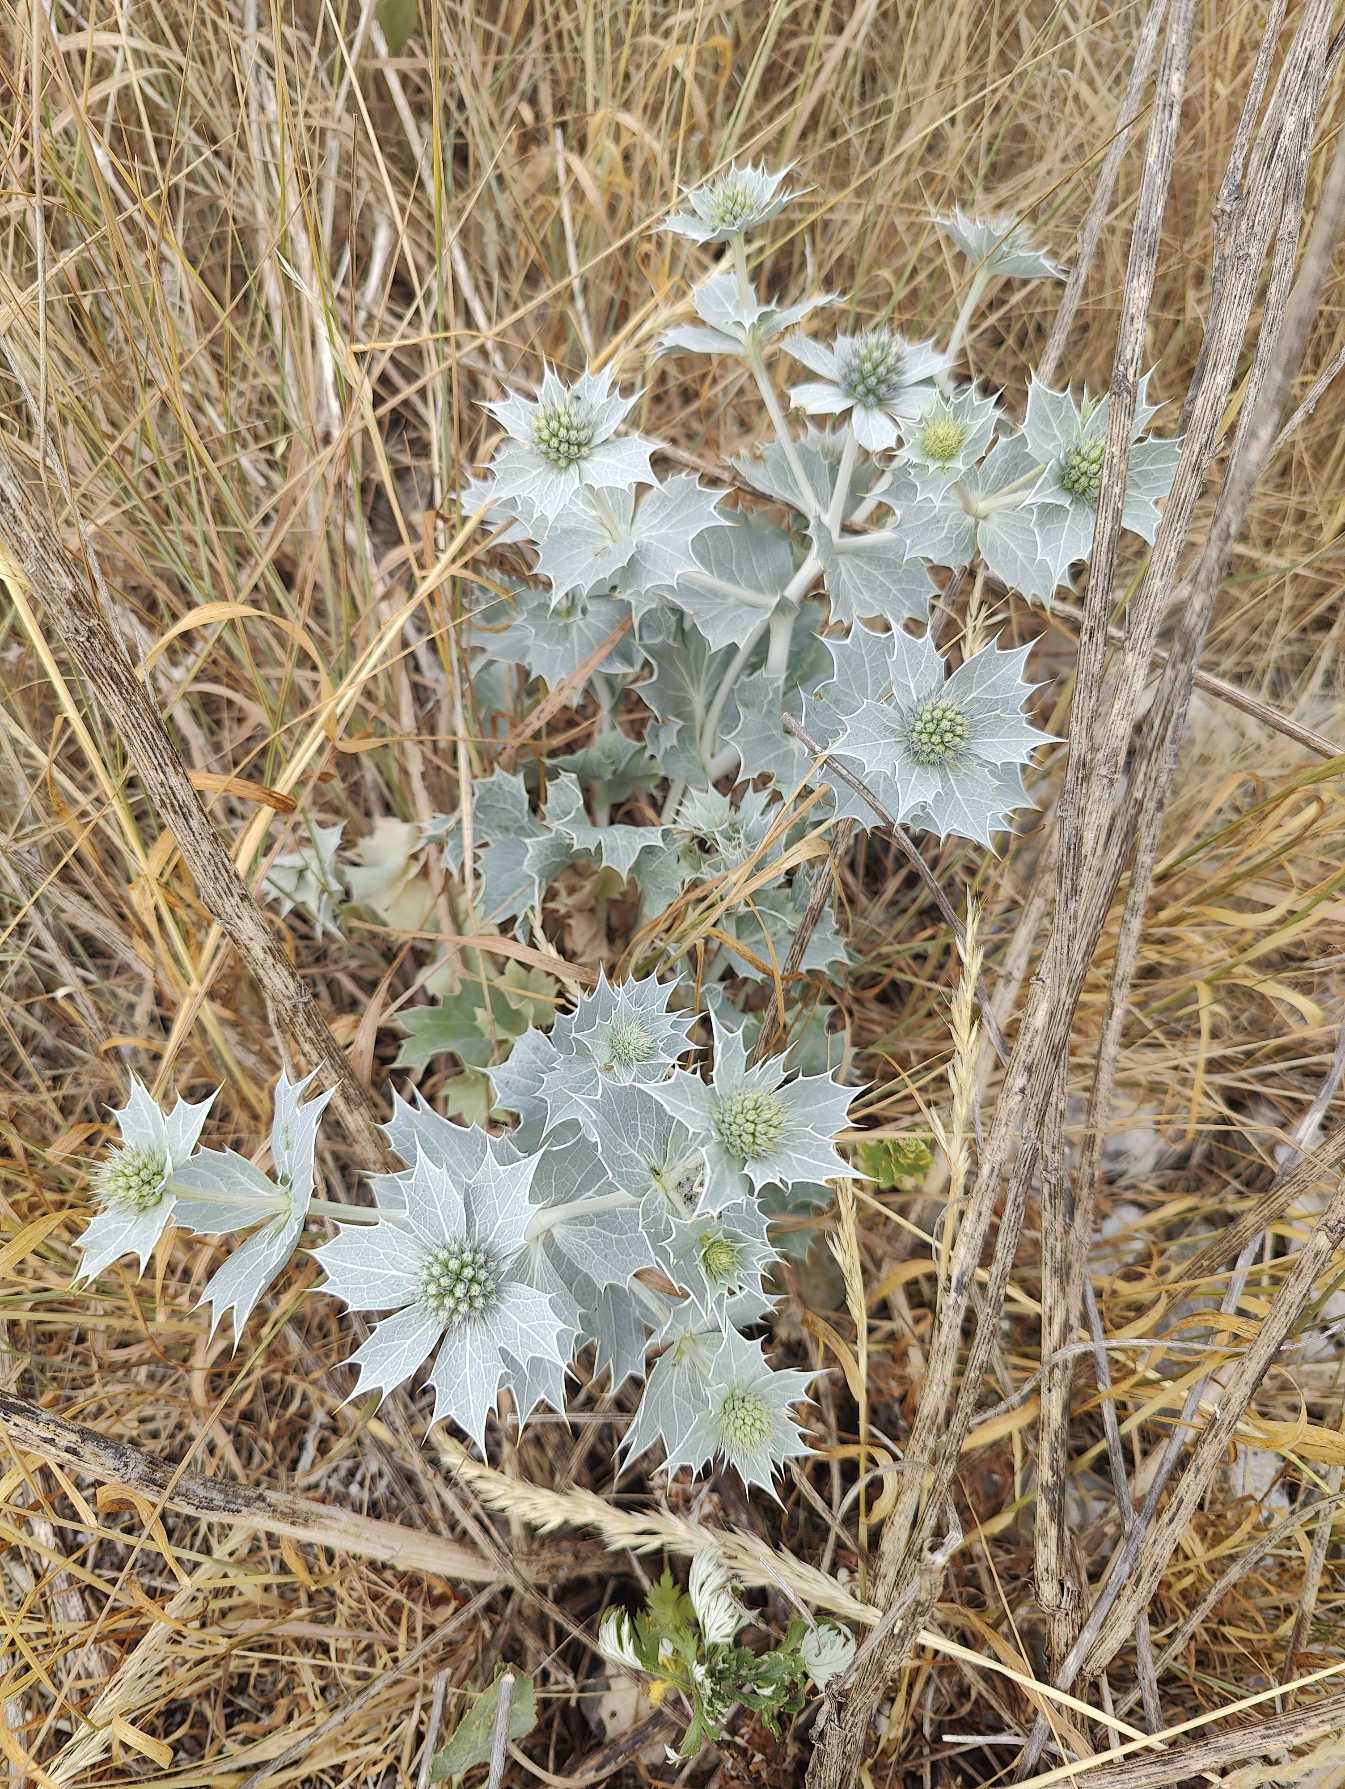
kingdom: Plantae
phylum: Tracheophyta
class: Magnoliopsida
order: Apiales
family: Apiaceae
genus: Eryngium
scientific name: Eryngium maritimum
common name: Strand-mandstro
